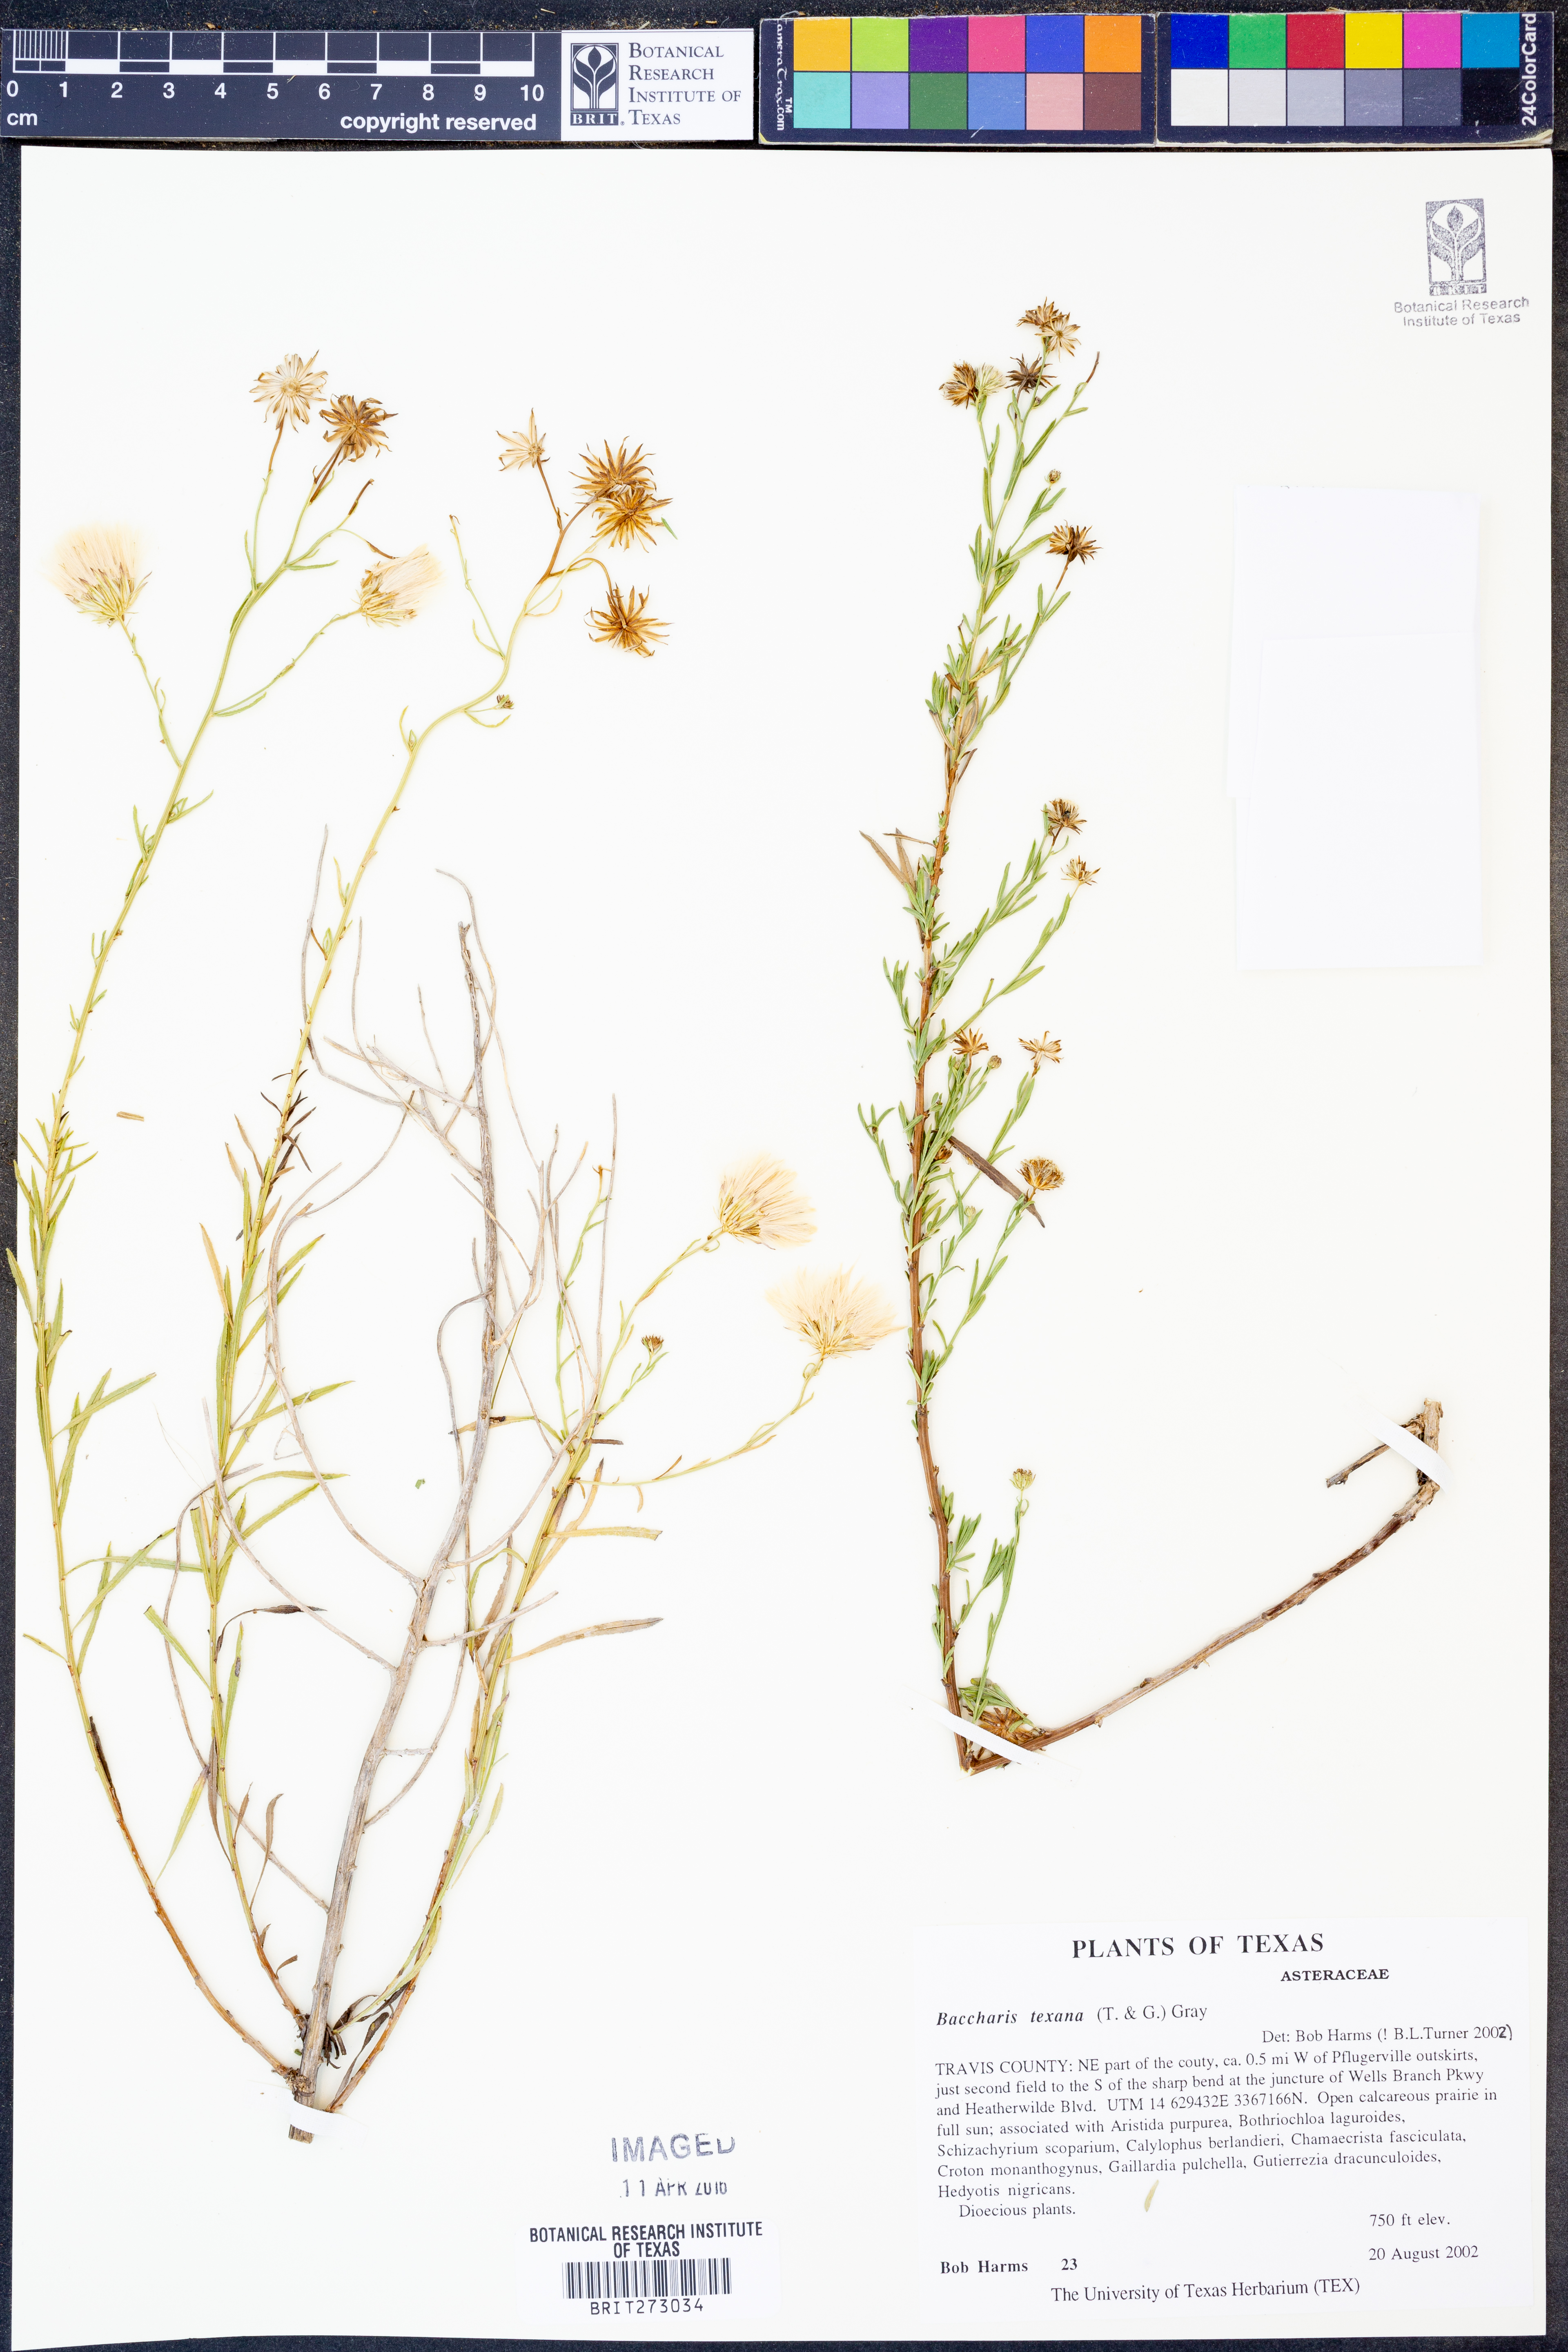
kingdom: Plantae
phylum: Tracheophyta
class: Magnoliopsida
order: Asterales
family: Asteraceae
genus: Baccharis
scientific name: Baccharis texana
